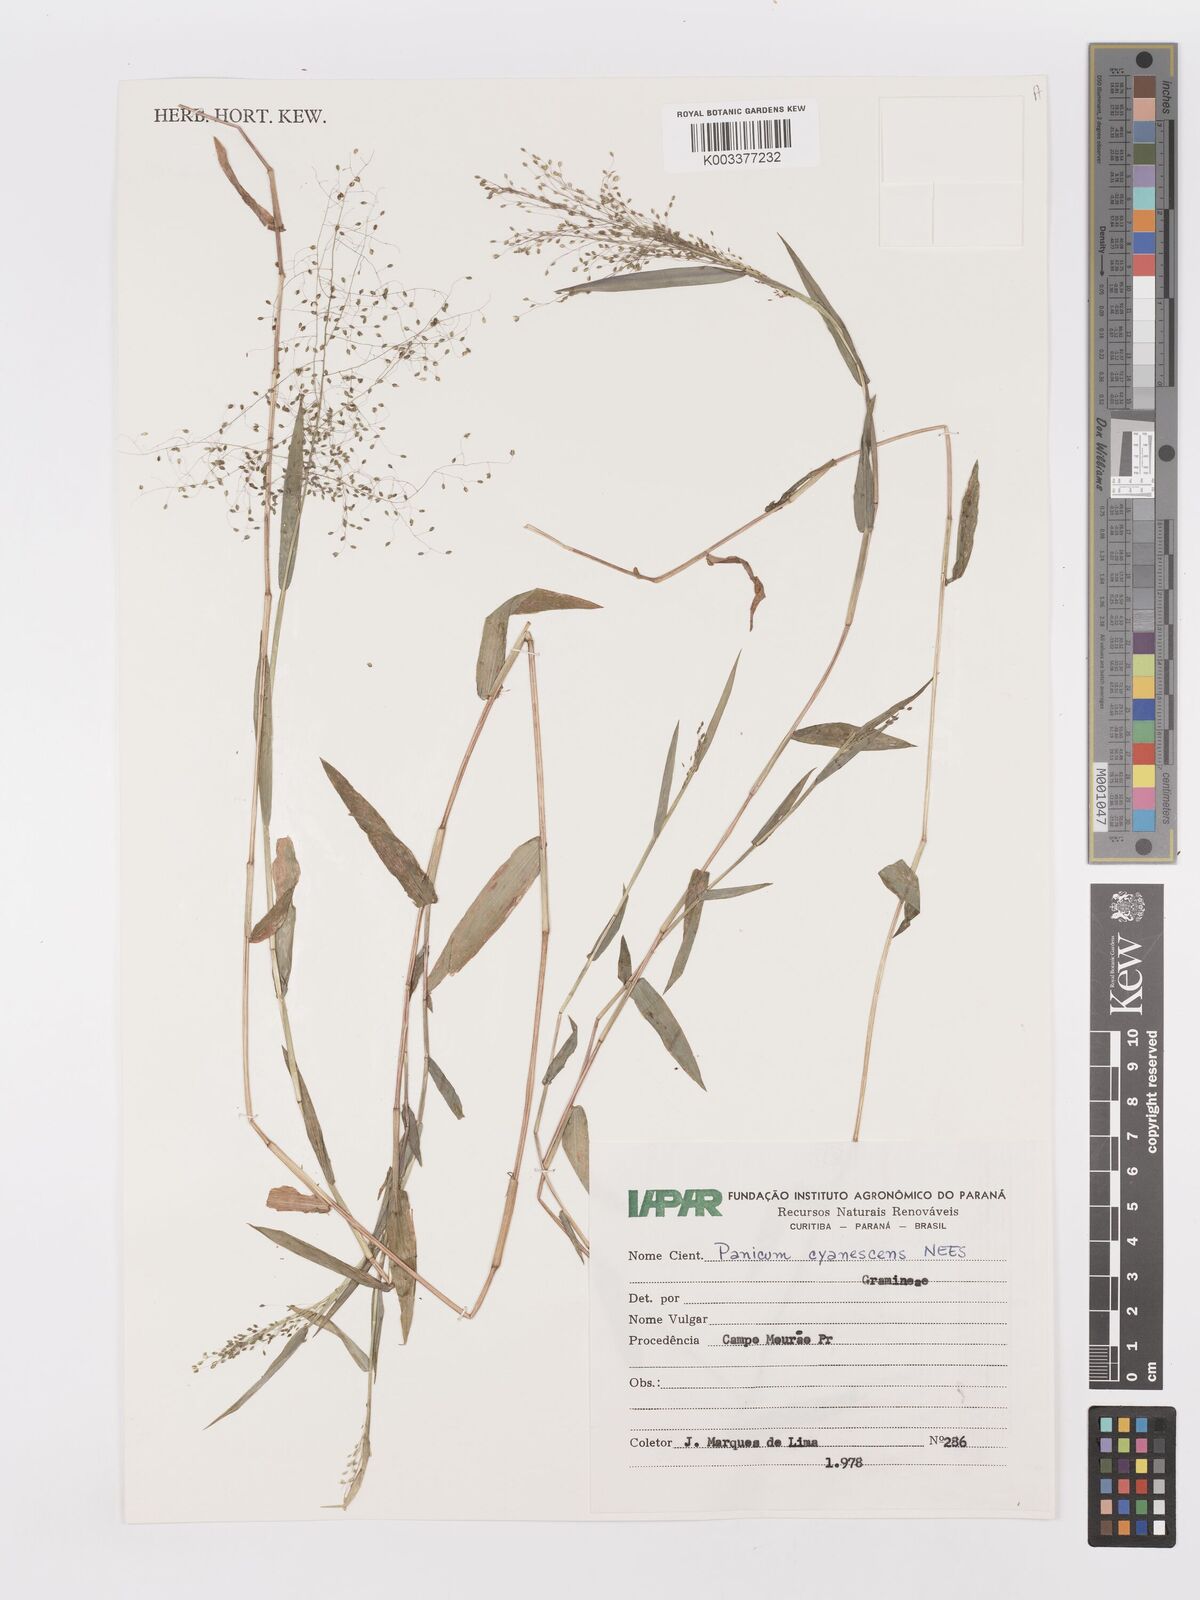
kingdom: Plantae
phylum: Tracheophyta
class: Liliopsida
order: Poales
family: Poaceae
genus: Trichanthecium
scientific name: Trichanthecium schwackeanum
